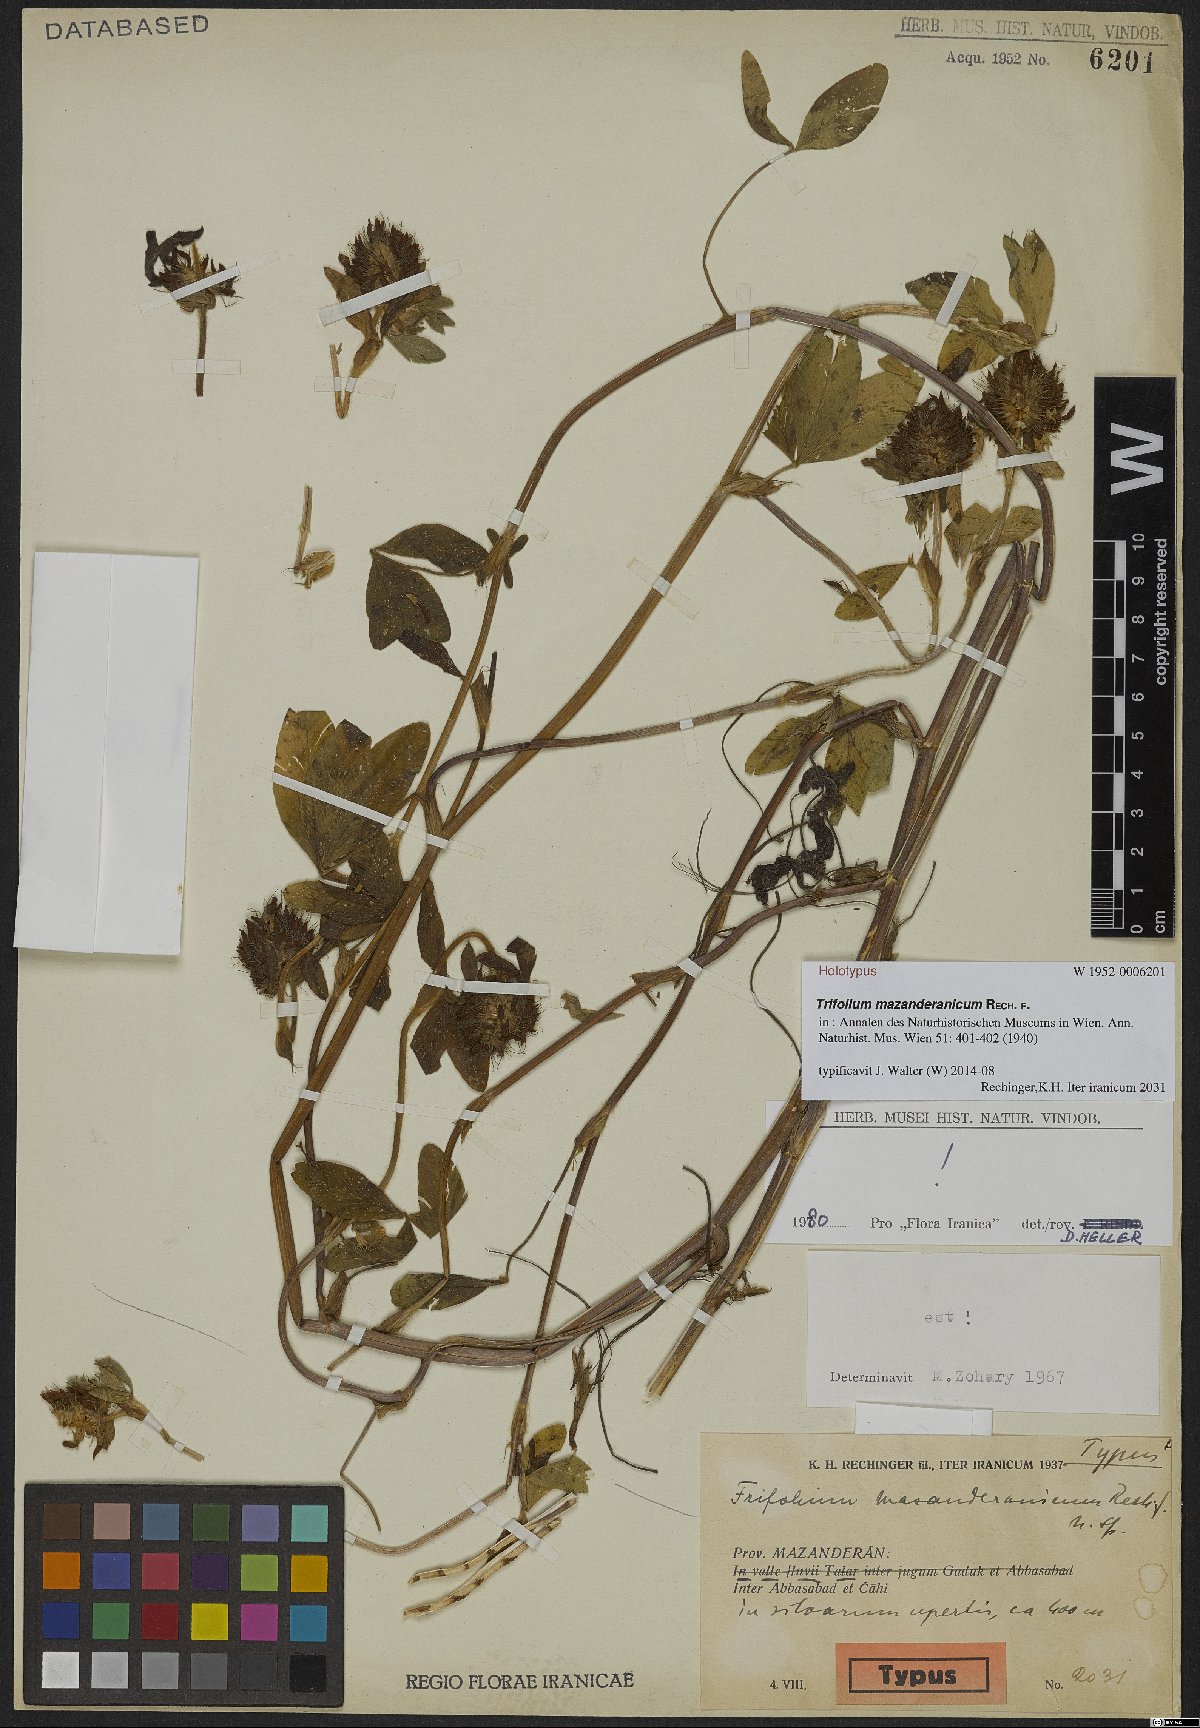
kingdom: Plantae
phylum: Tracheophyta
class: Magnoliopsida
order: Fabales
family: Fabaceae
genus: Trifolium
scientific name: Trifolium mazanderanicum
